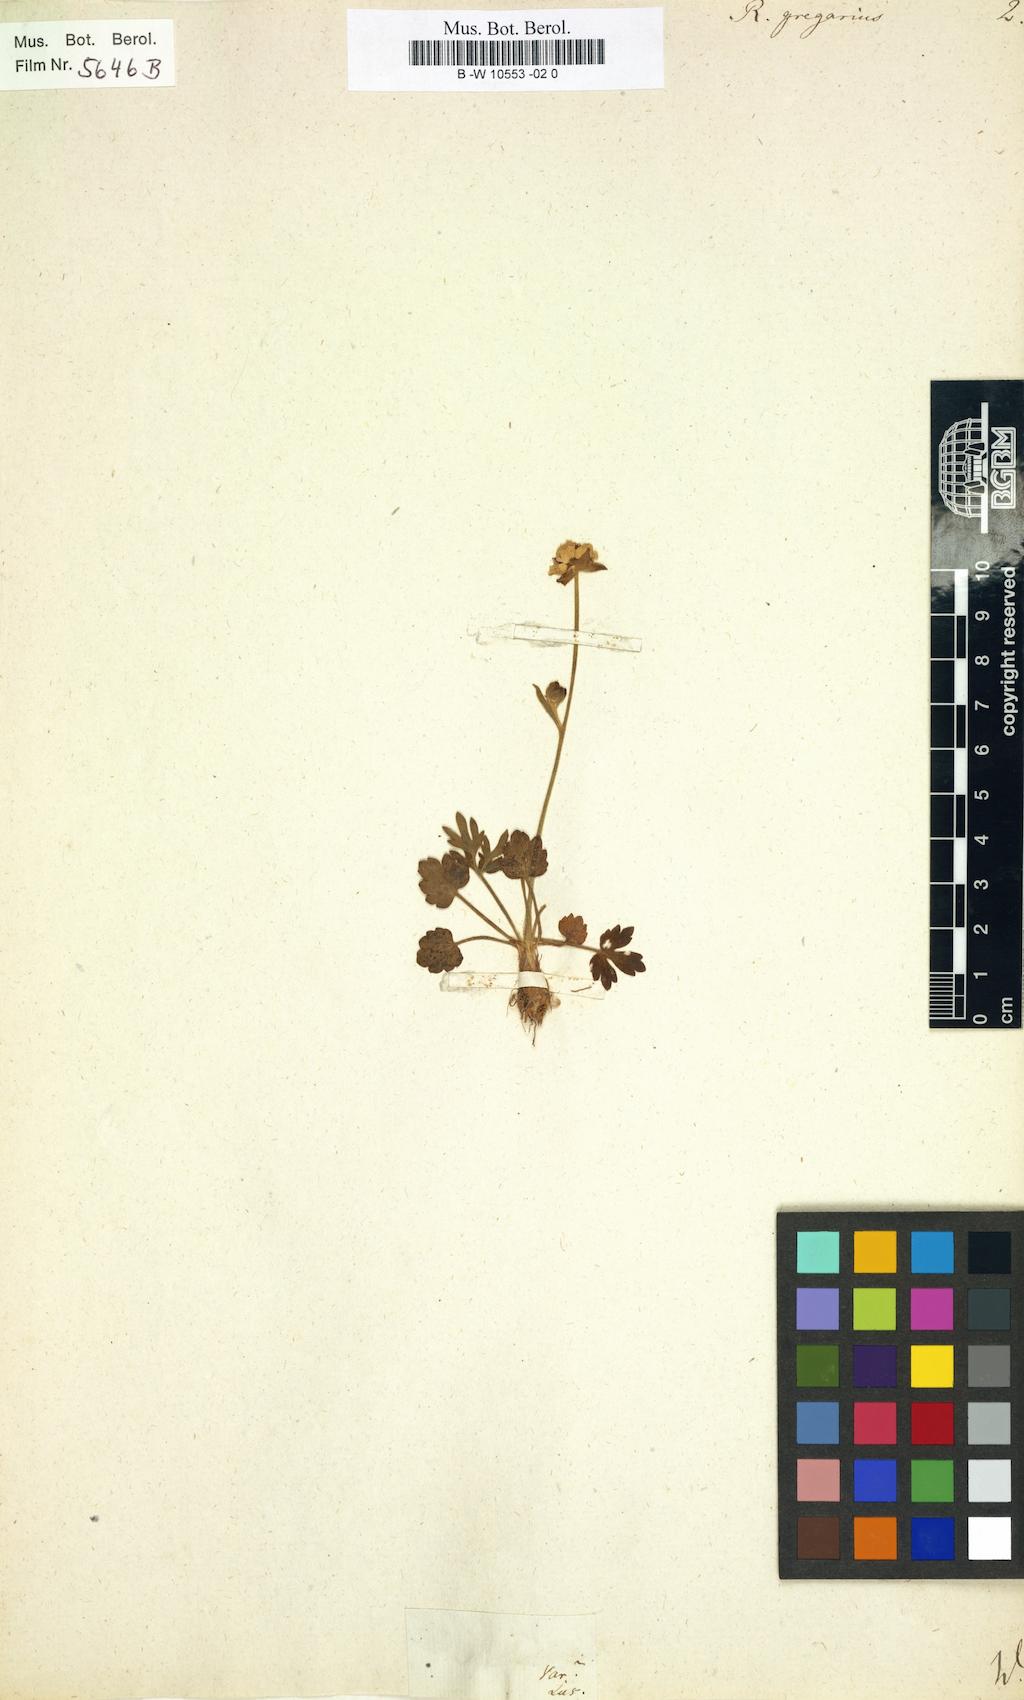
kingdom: Plantae
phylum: Tracheophyta
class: Magnoliopsida
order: Ranunculales
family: Ranunculaceae
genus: Ranunculus
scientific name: Ranunculus gregarius
